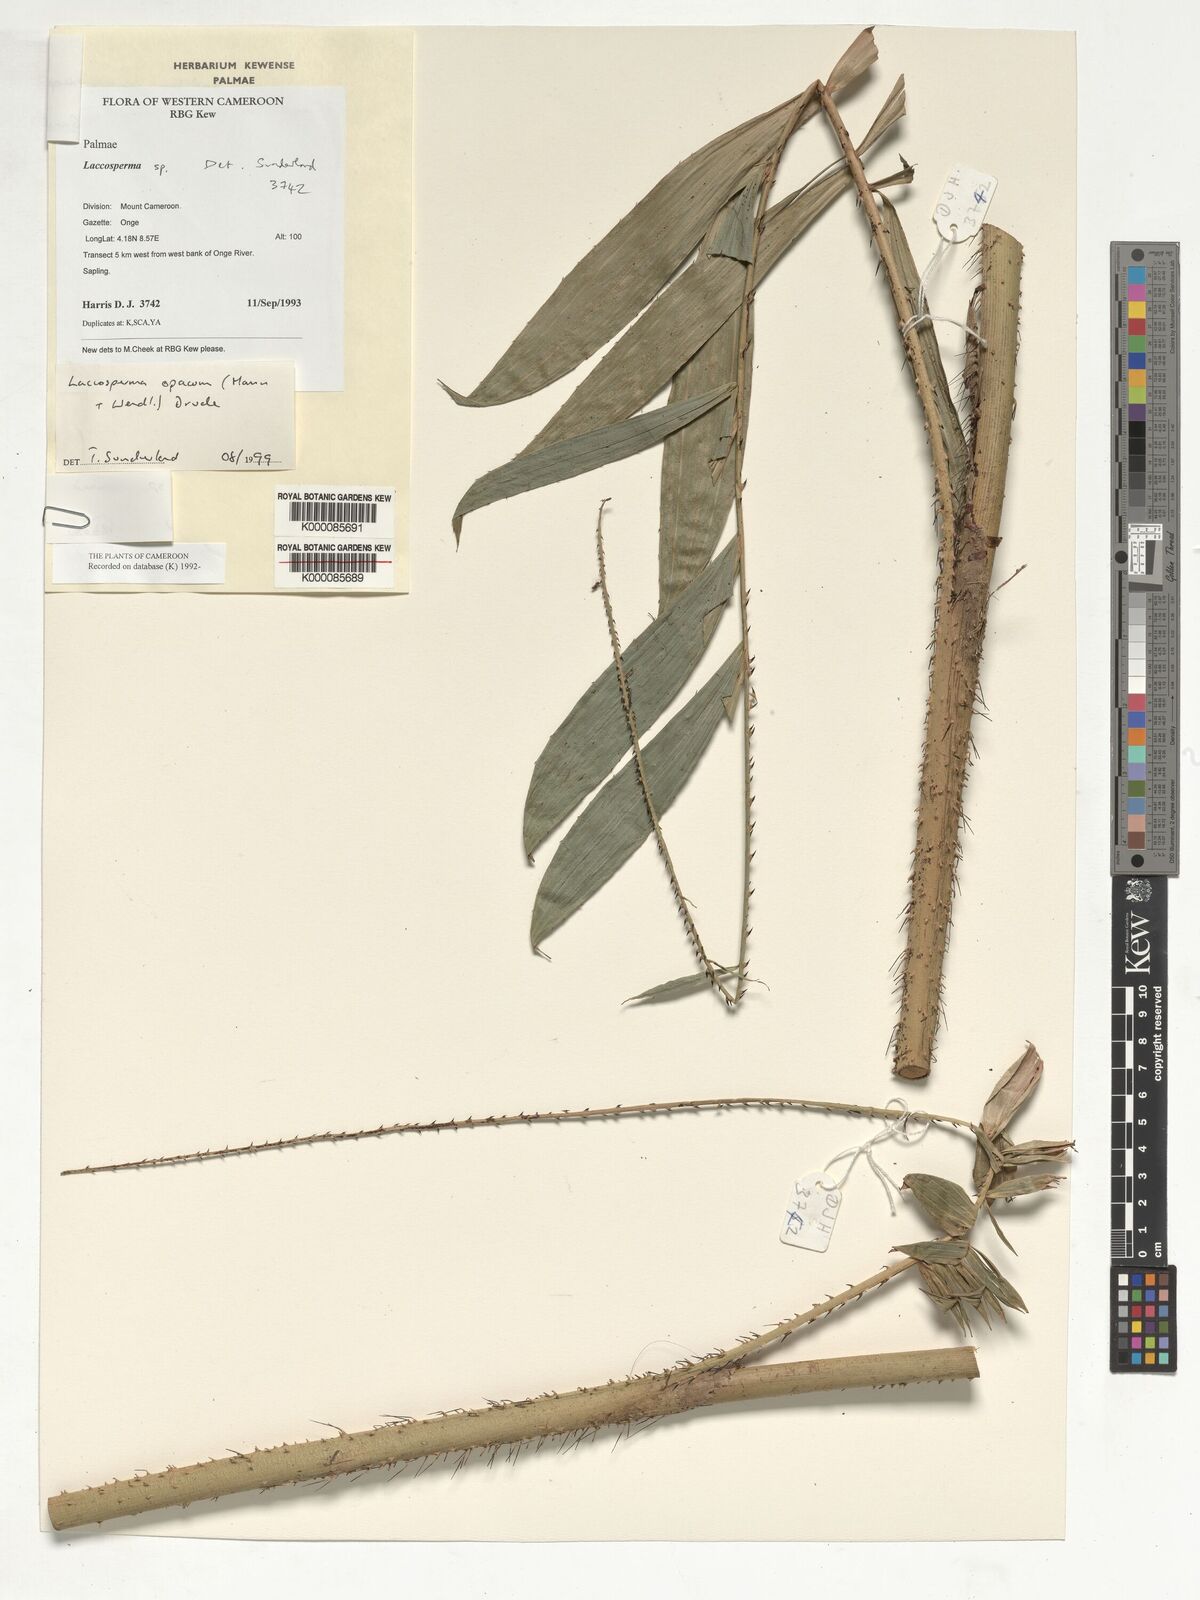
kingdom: Plantae
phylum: Tracheophyta
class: Liliopsida
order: Arecales
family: Arecaceae
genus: Laccosperma
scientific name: Laccosperma
